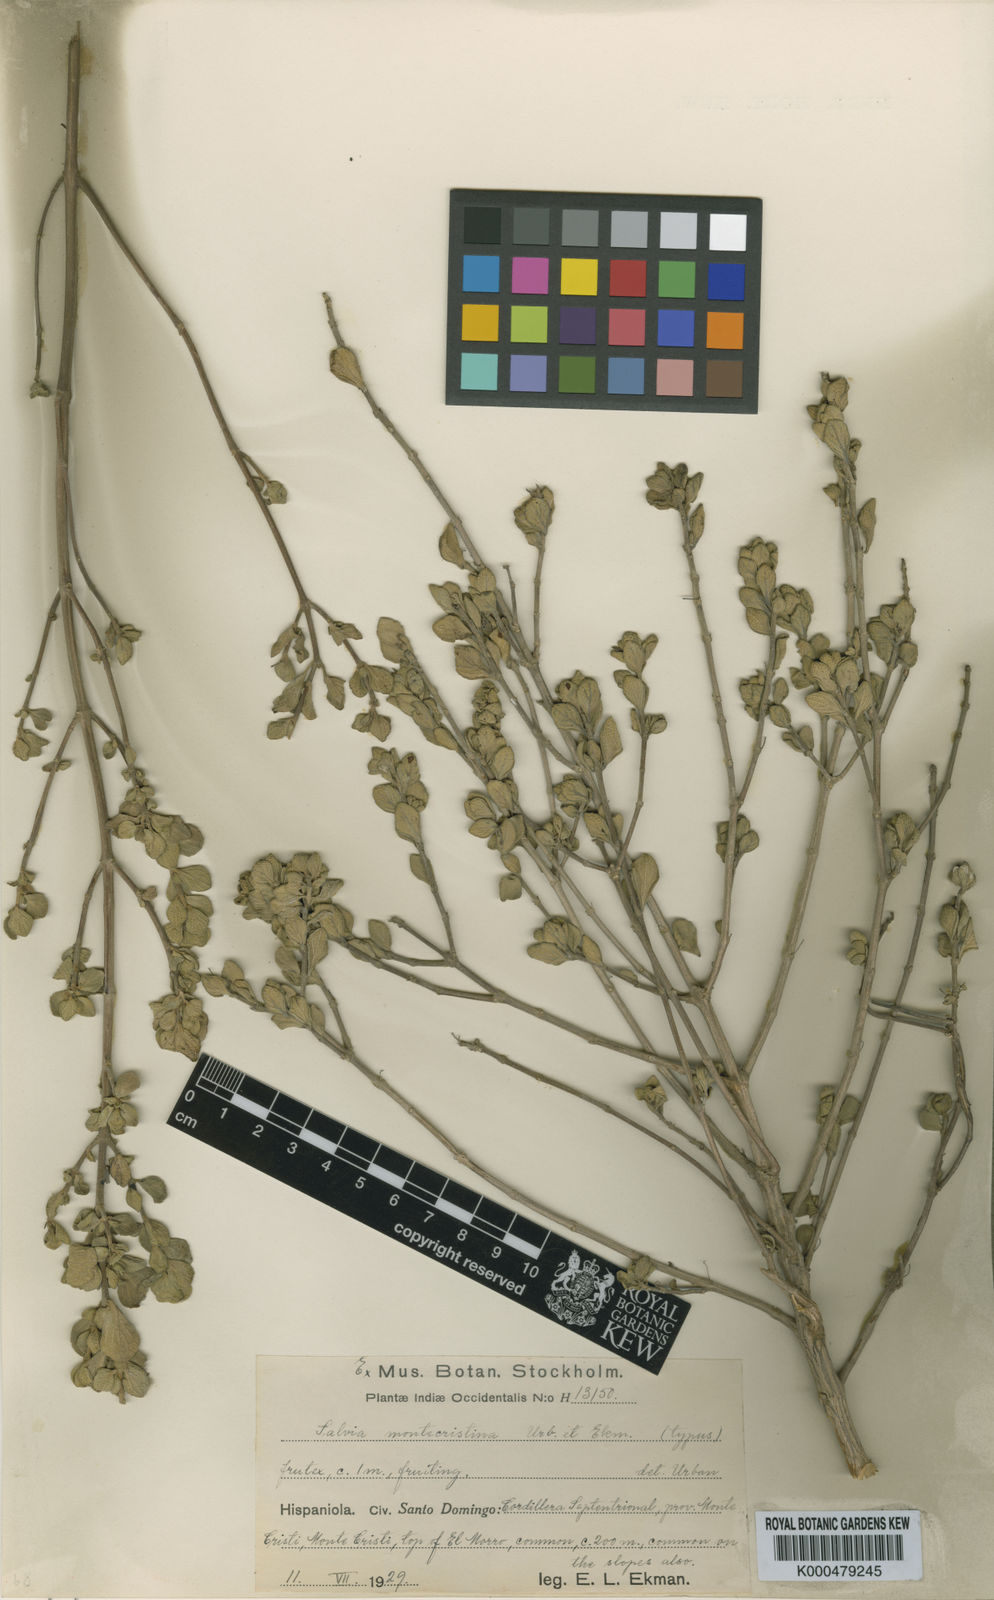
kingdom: Plantae
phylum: Tracheophyta
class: Magnoliopsida
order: Lamiales
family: Lamiaceae
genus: Salvia
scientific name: Salvia montecristina
